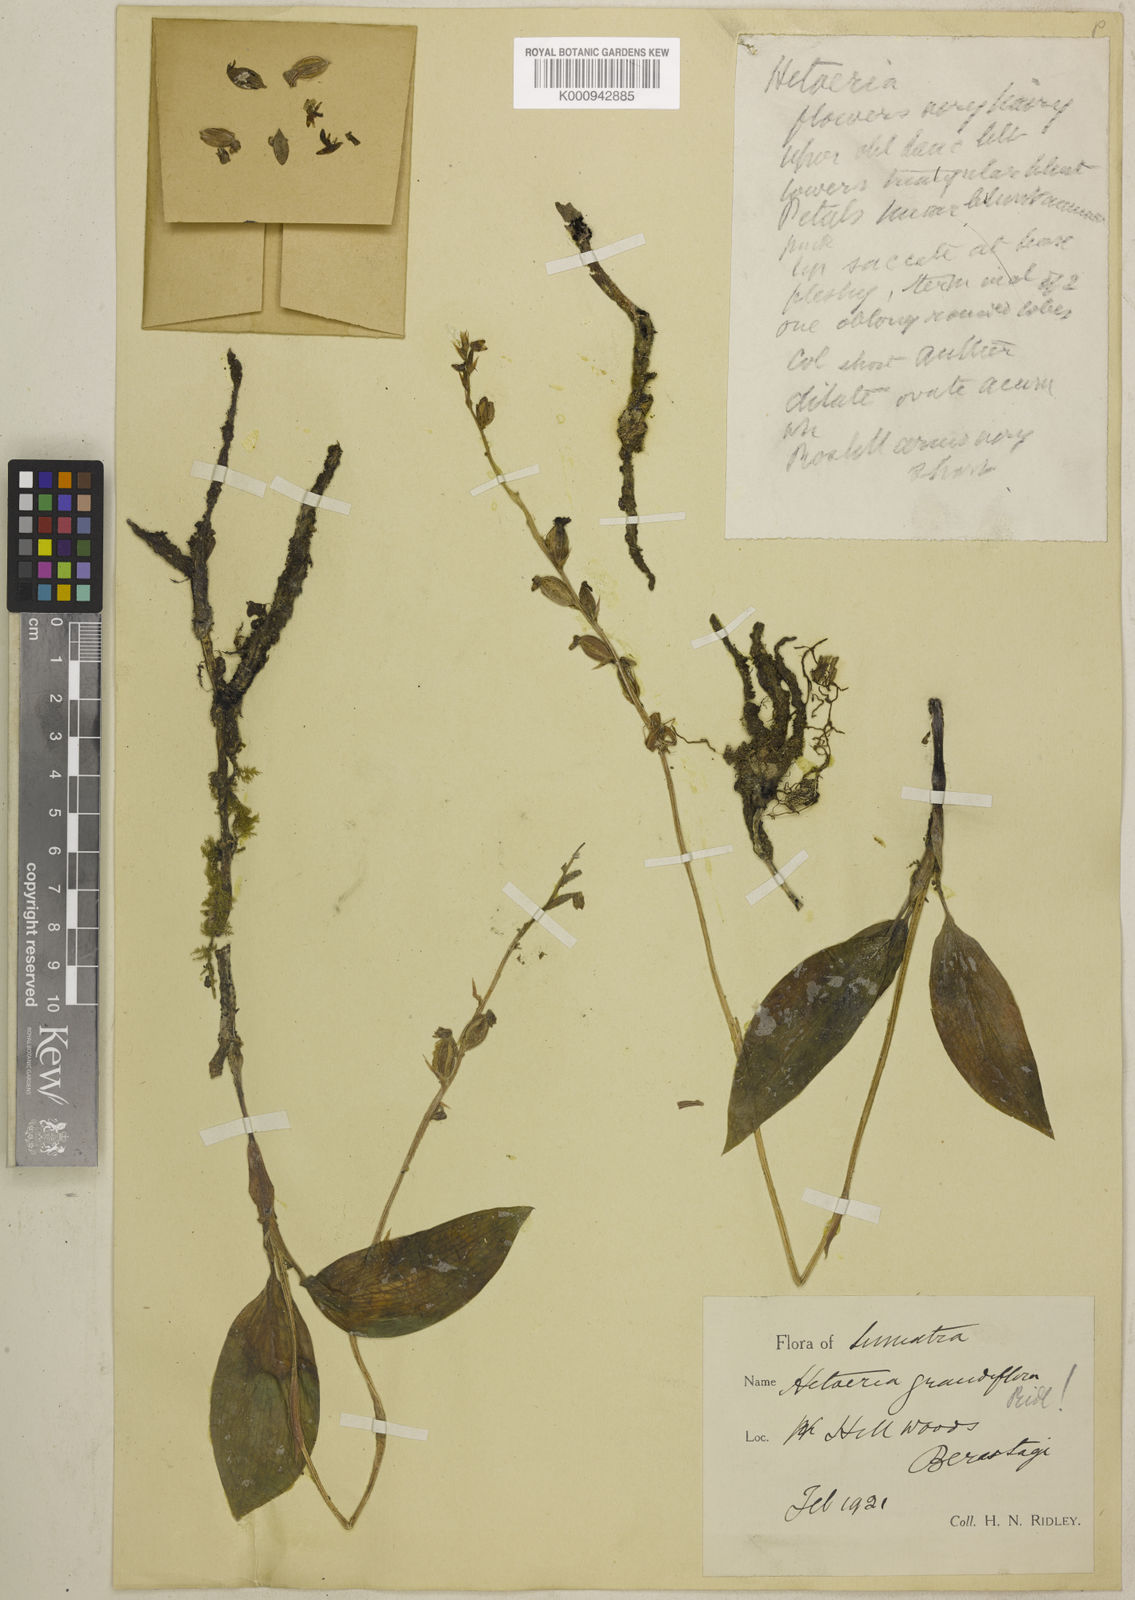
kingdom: Plantae
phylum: Tracheophyta
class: Liliopsida
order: Asparagales
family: Orchidaceae
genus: Hetaeria
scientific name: Hetaeria anomala
